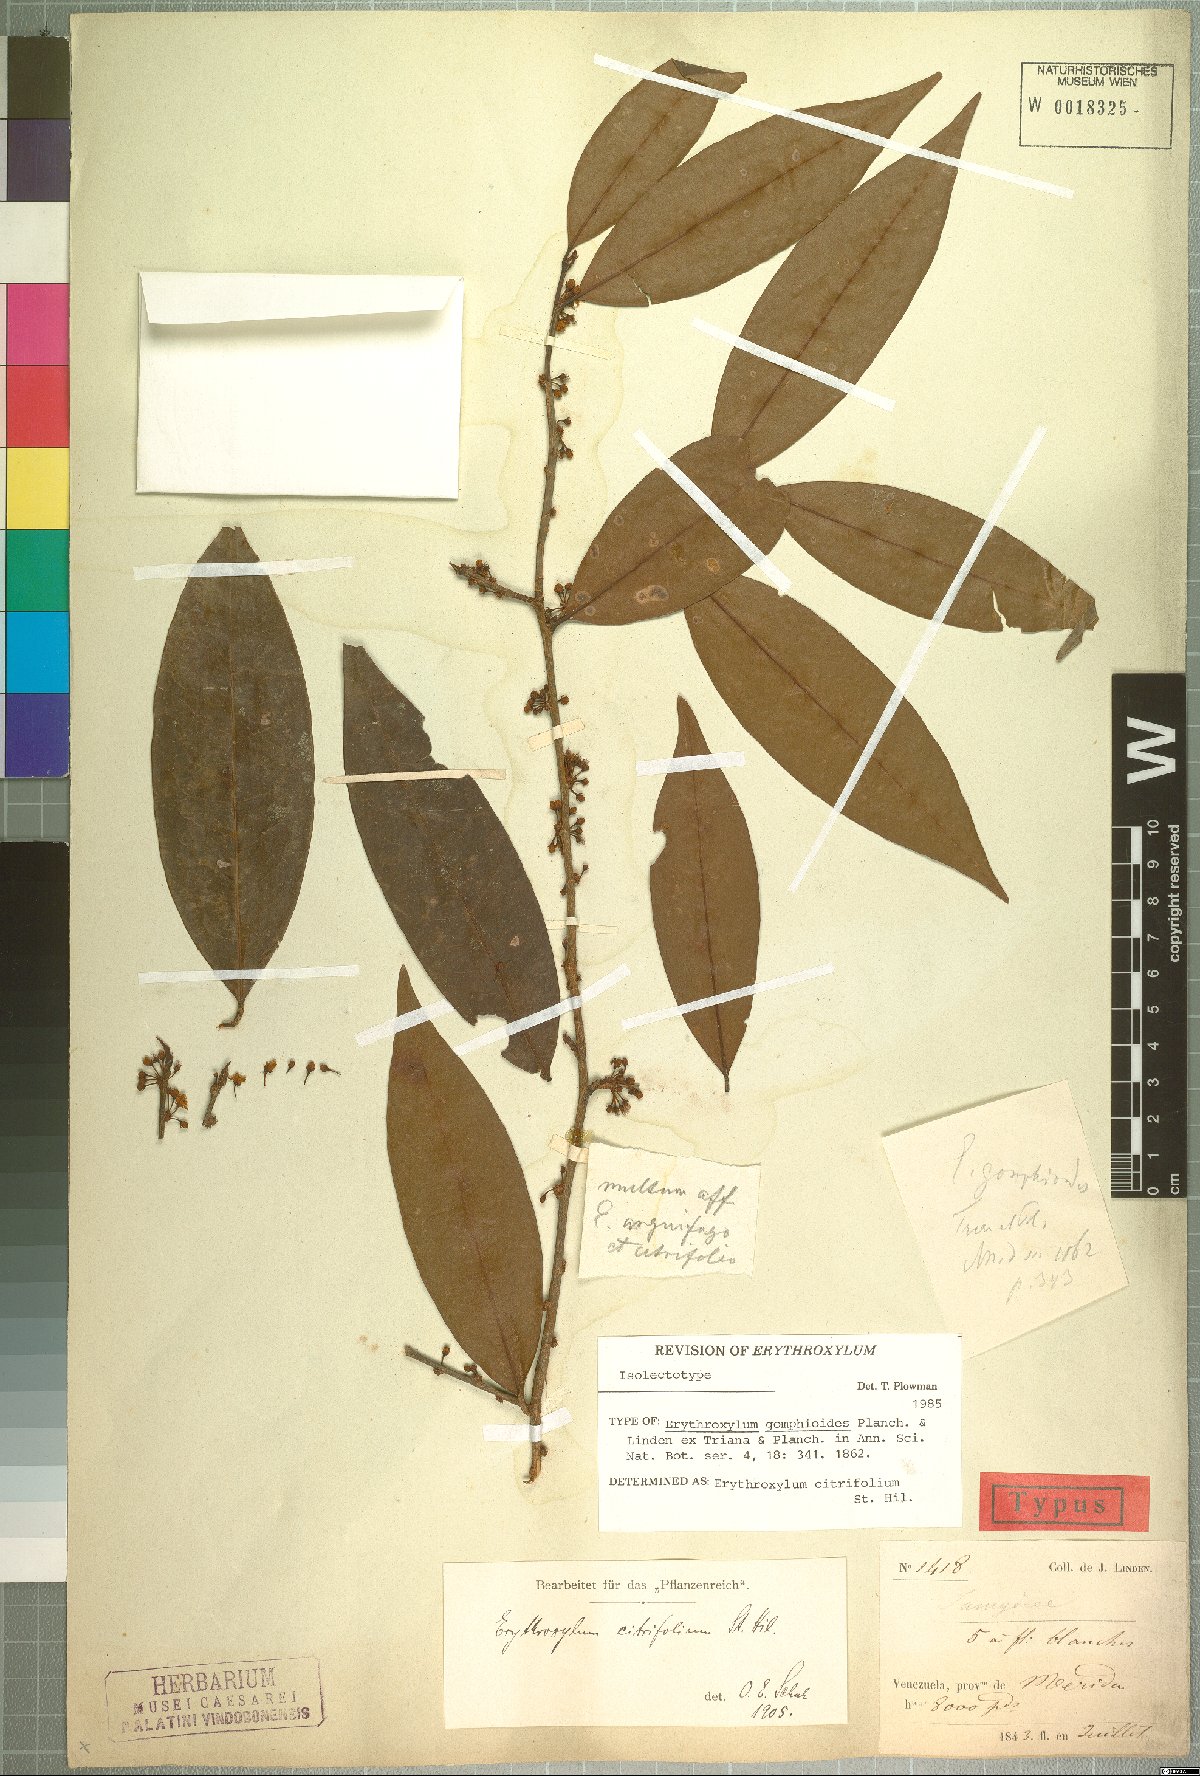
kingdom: Plantae
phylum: Tracheophyta
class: Magnoliopsida
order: Malpighiales
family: Erythroxylaceae
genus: Erythroxylum
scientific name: Erythroxylum citrifolium
